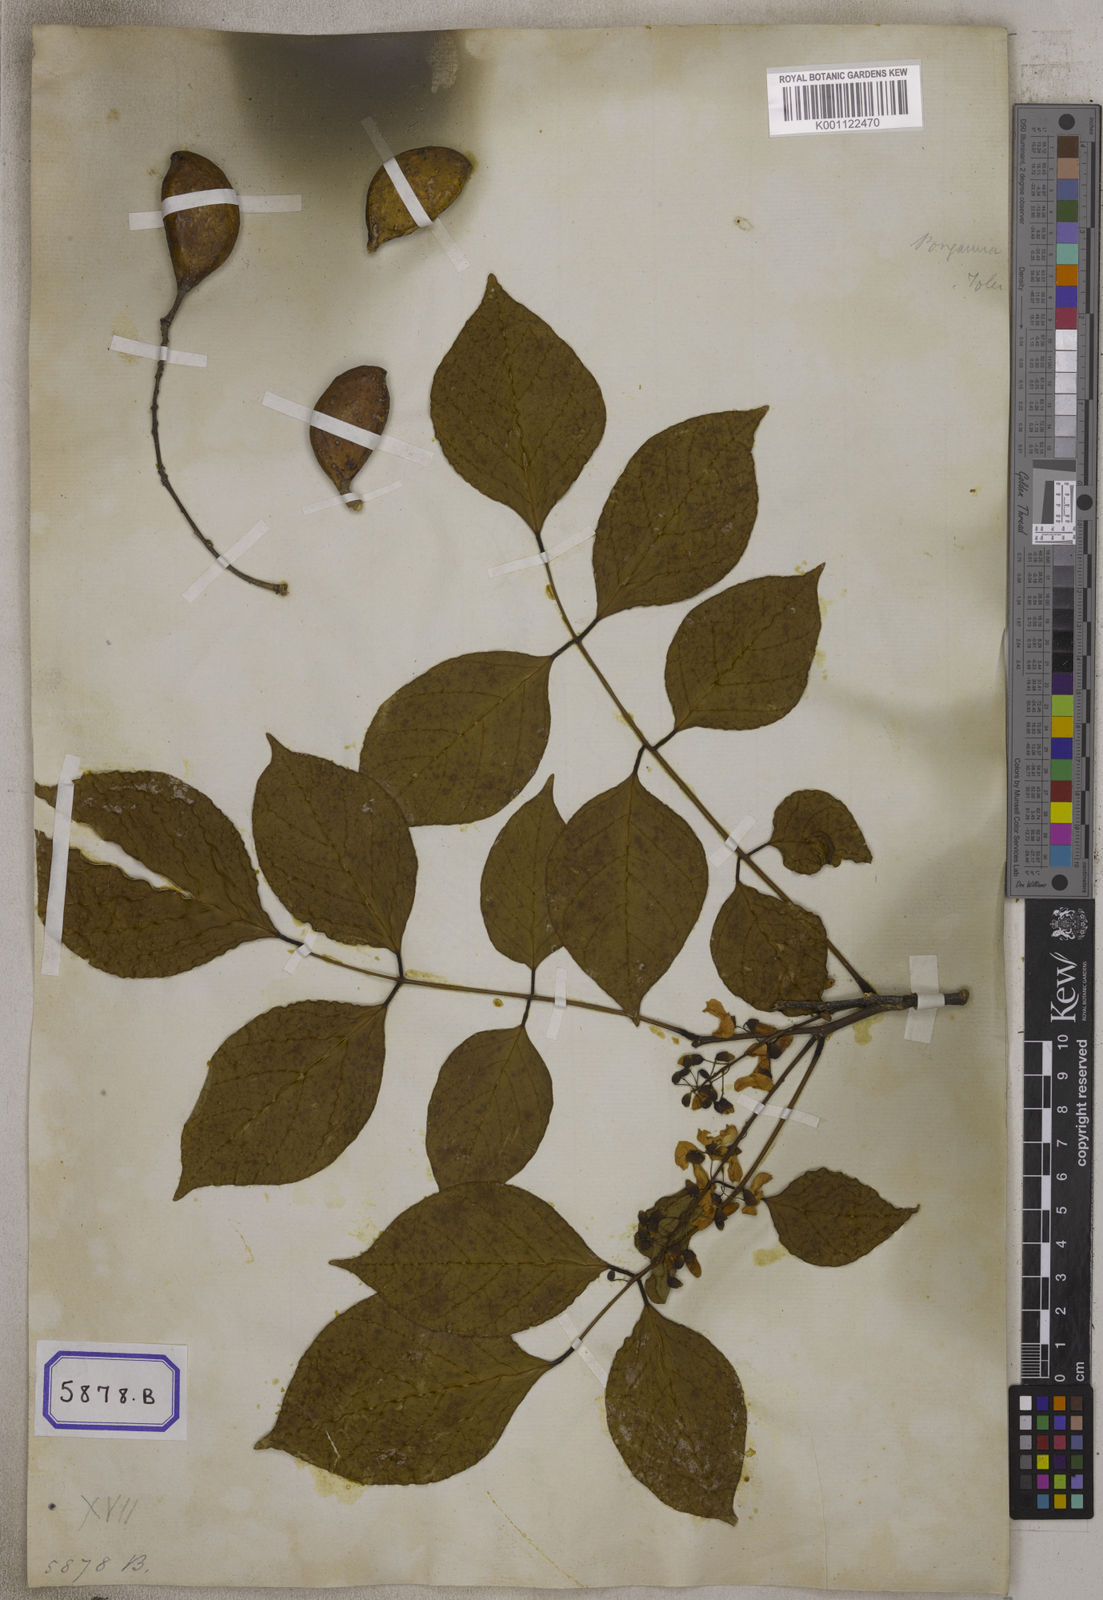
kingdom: Plantae
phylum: Tracheophyta
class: Magnoliopsida
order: Fabales
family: Fabaceae
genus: Pongamia
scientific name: Pongamia pinnata
